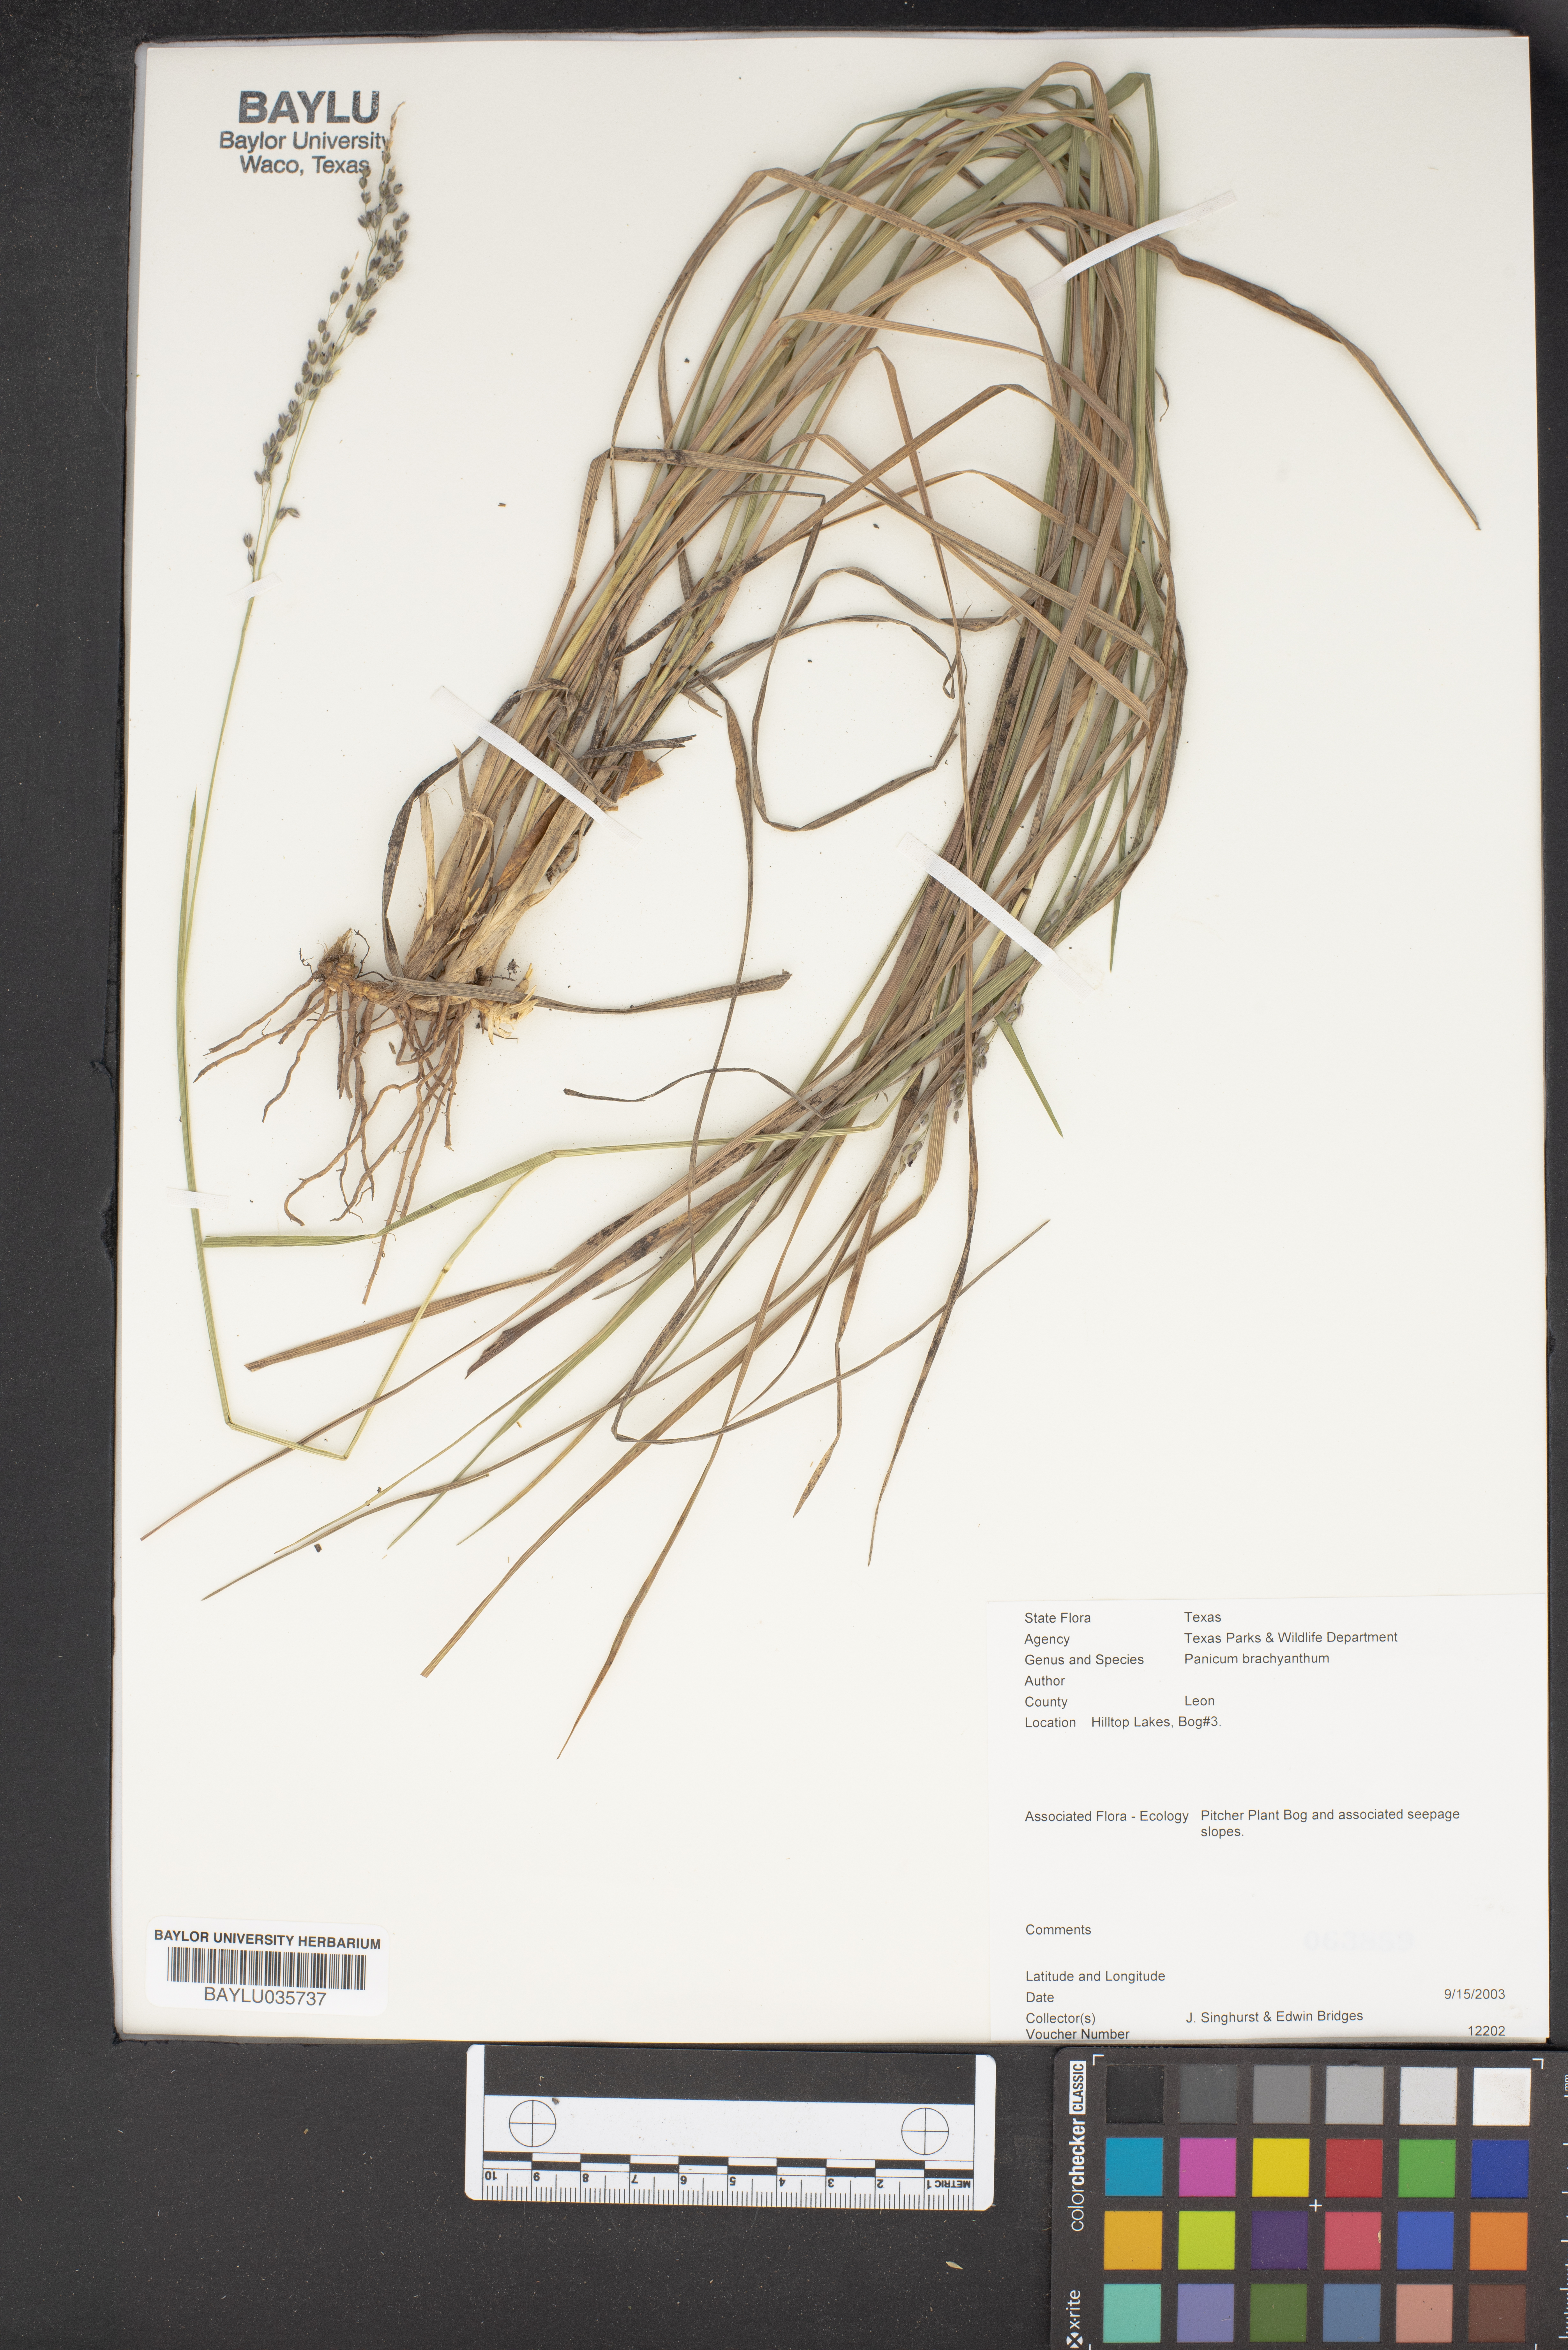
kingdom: Plantae
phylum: Tracheophyta
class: Liliopsida
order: Poales
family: Poaceae
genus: Kellochloa
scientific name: Kellochloa brachyantha
